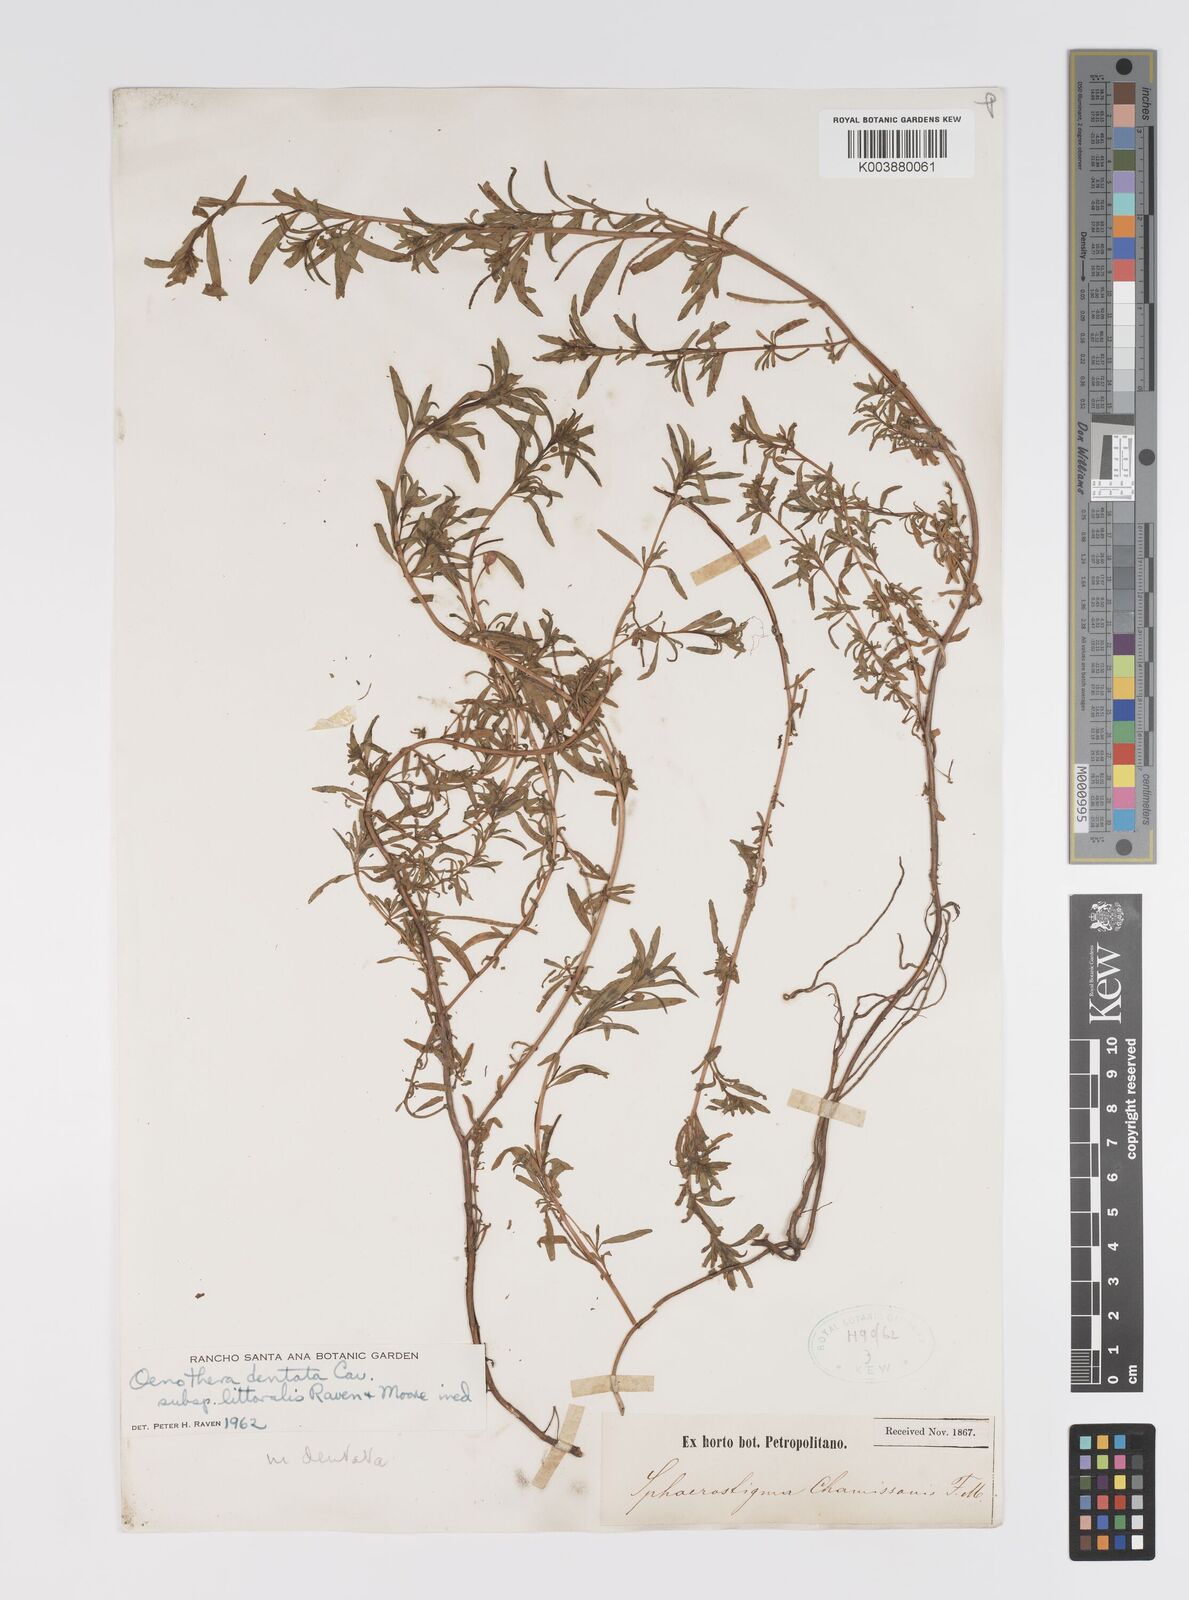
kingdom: Plantae
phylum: Tracheophyta
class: Magnoliopsida
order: Myrtales
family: Onagraceae
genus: Camissonia
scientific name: Camissonia dentata
